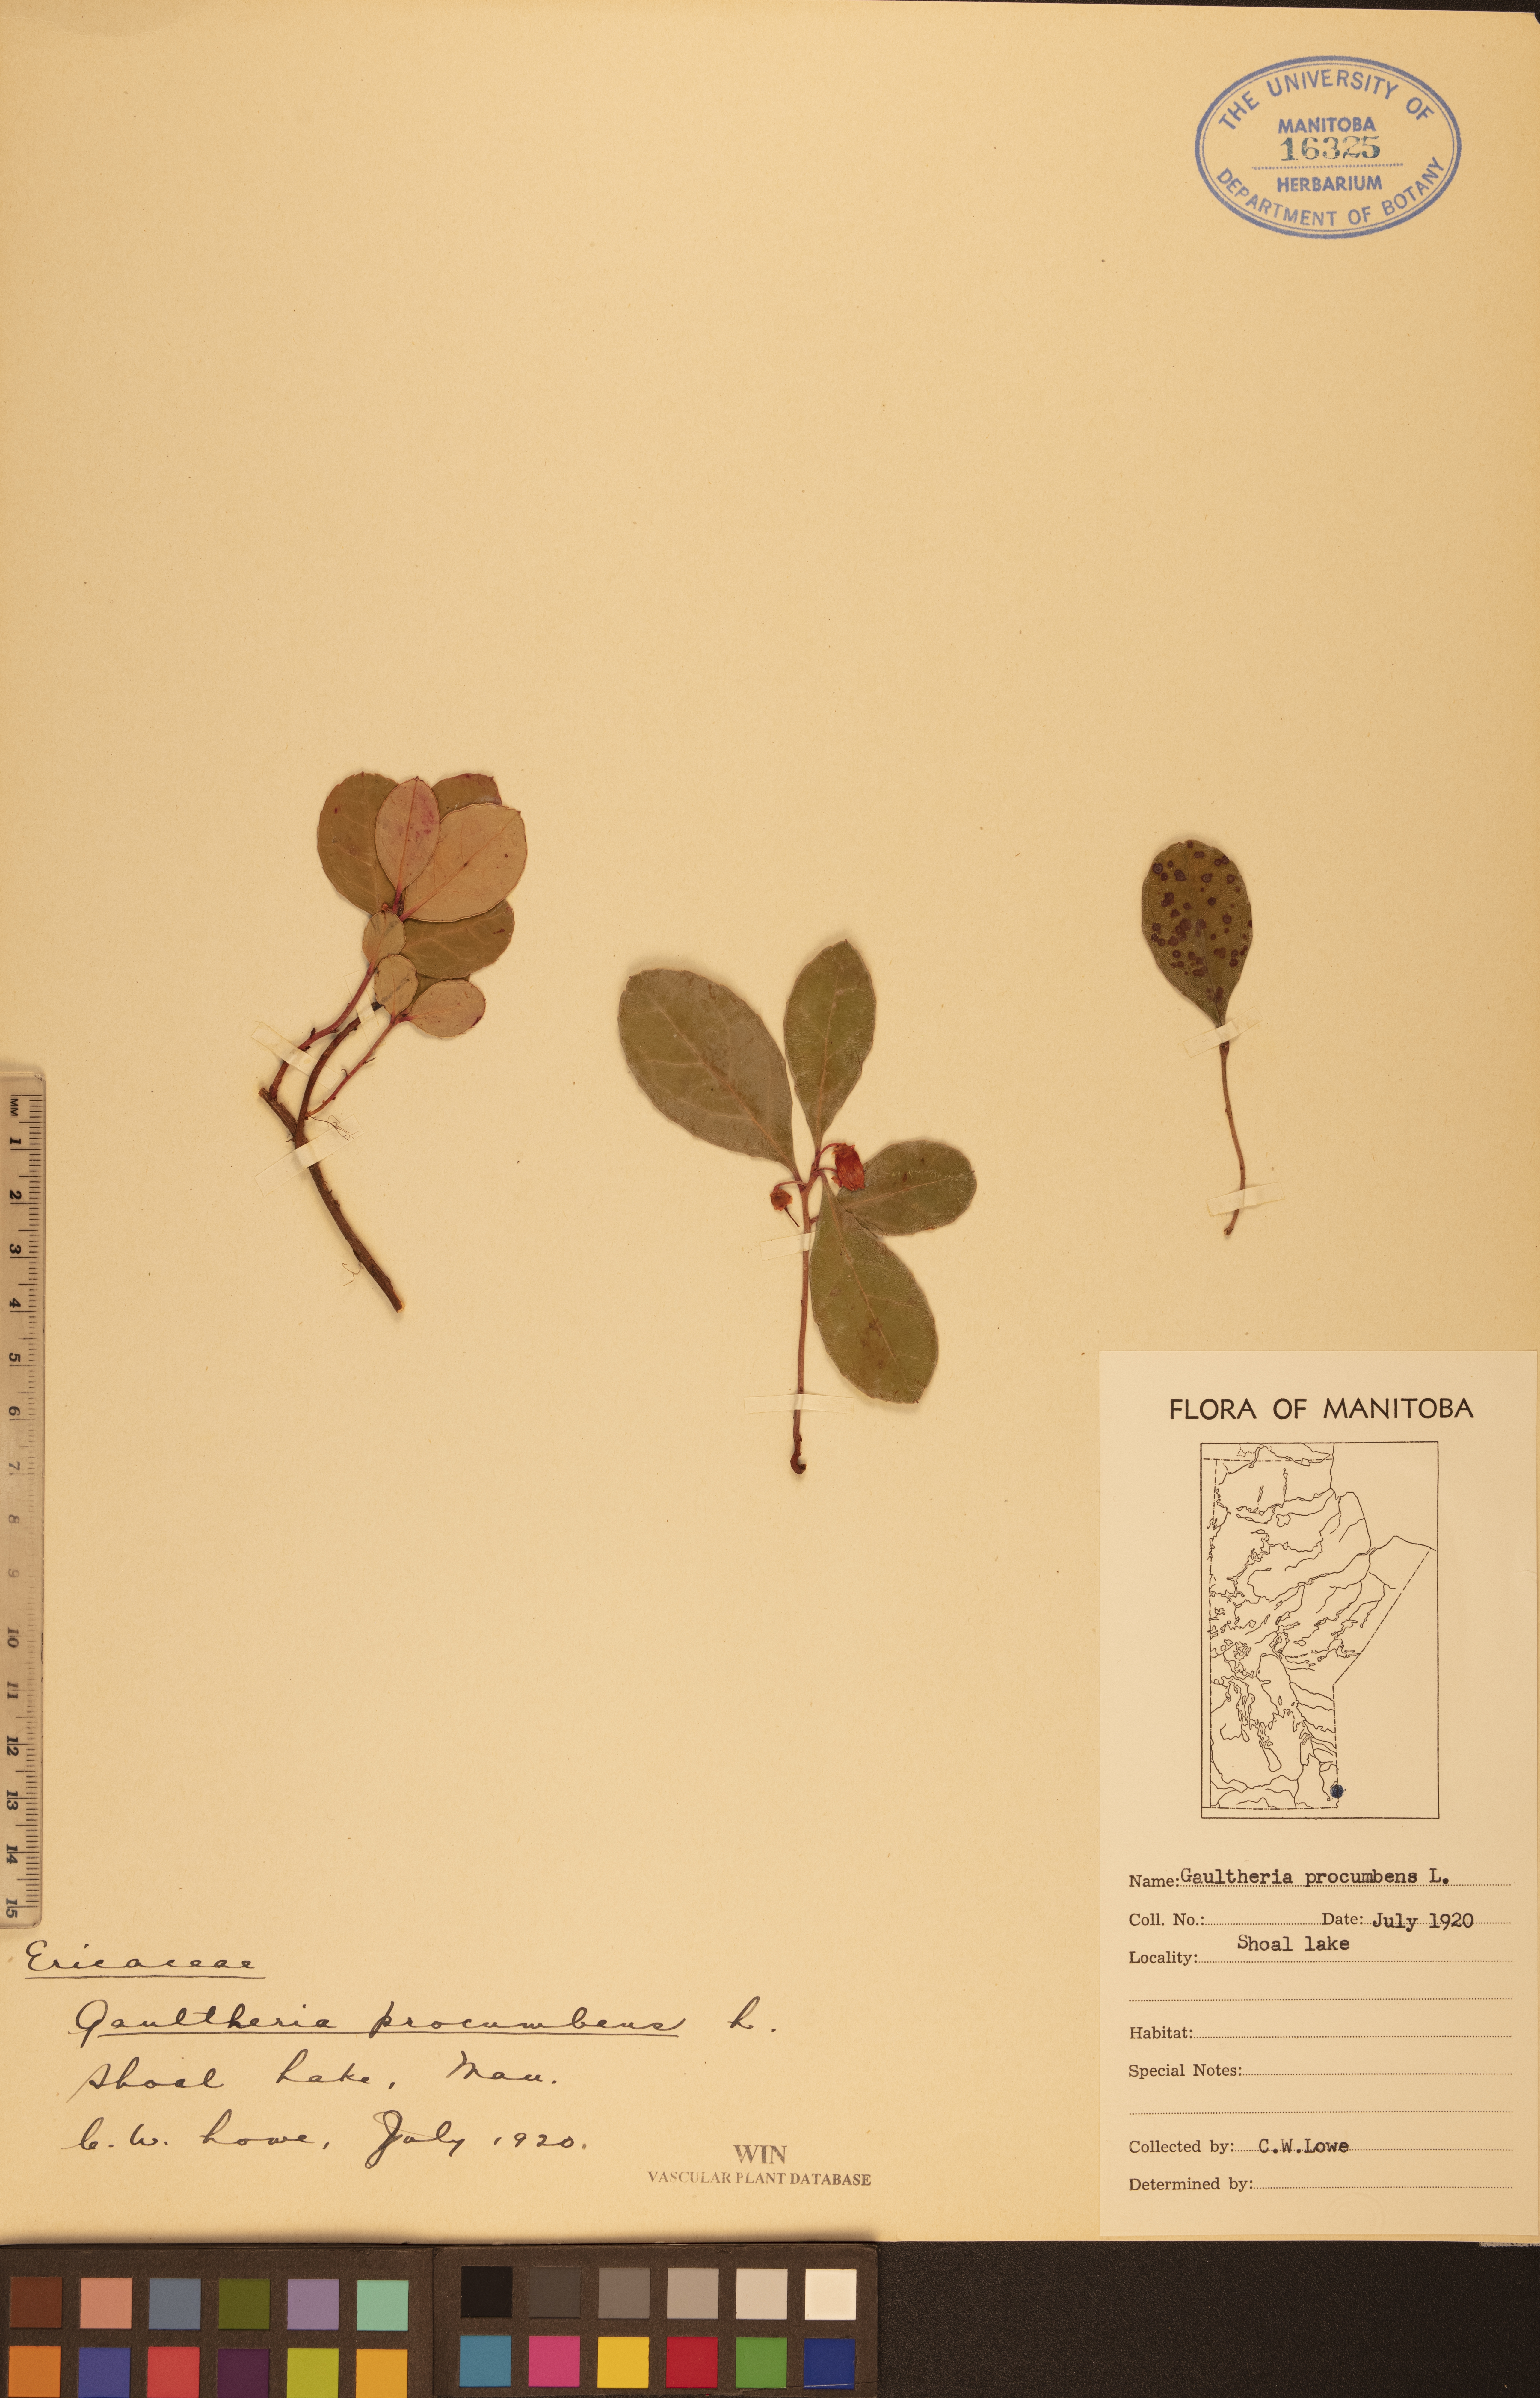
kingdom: Plantae
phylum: Tracheophyta
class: Magnoliopsida
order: Ericales
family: Ericaceae
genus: Gaultheria
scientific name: Gaultheria procumbens
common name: Checkerberry
